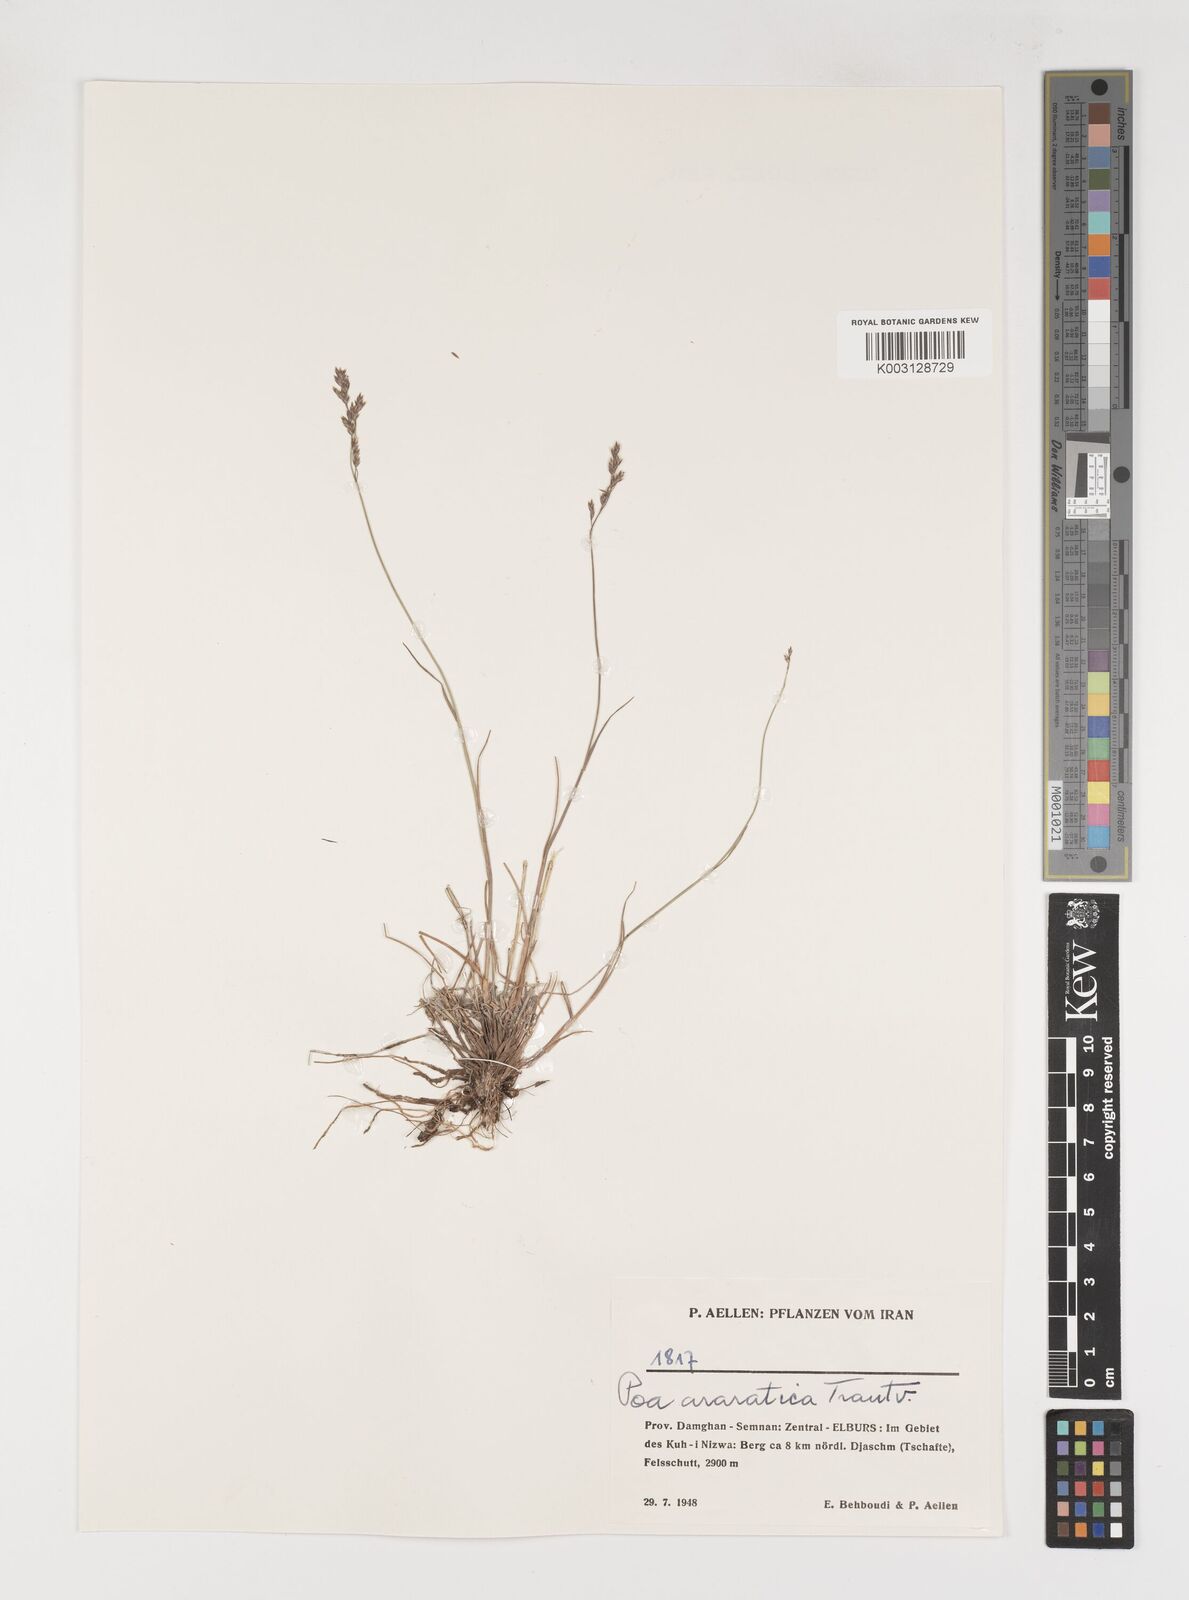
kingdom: Plantae
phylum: Tracheophyta
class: Liliopsida
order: Poales
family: Poaceae
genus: Poa
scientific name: Poa araratica
